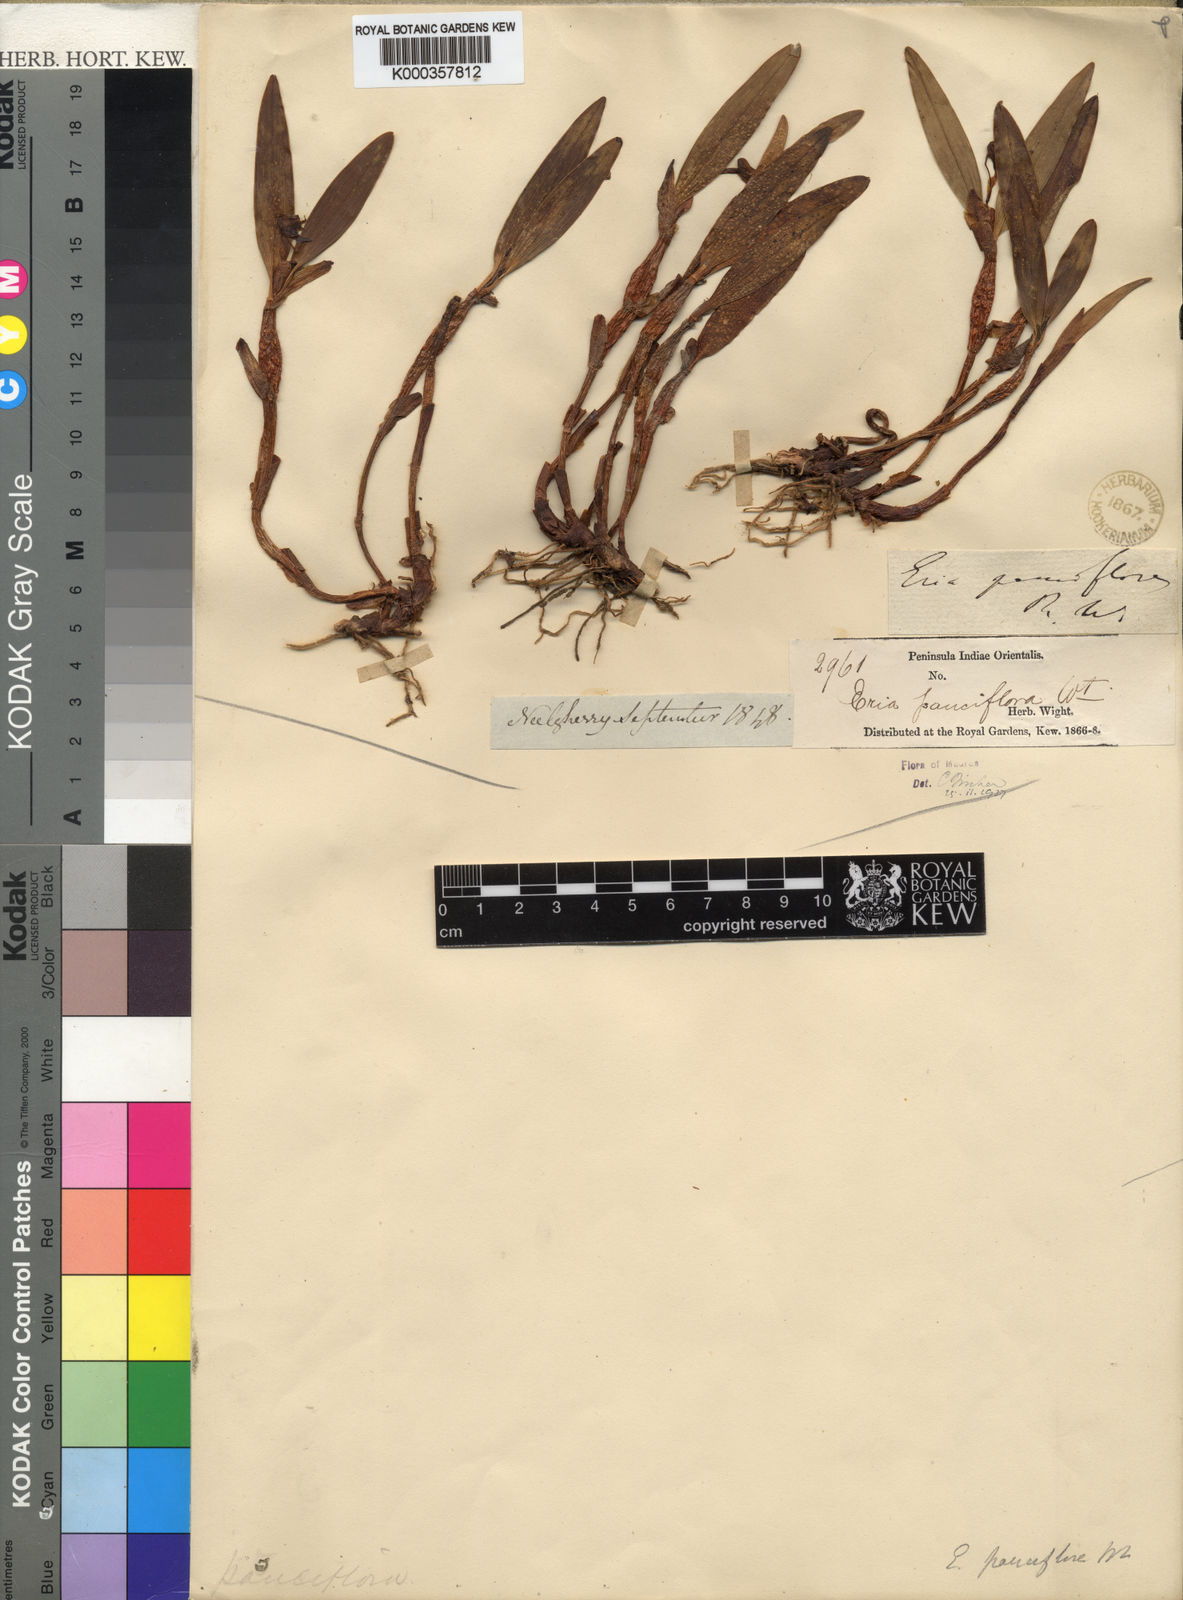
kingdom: Plantae
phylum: Tracheophyta
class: Liliopsida
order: Asparagales
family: Orchidaceae
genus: Cylindrolobus
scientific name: Cylindrolobus pauciflorus
